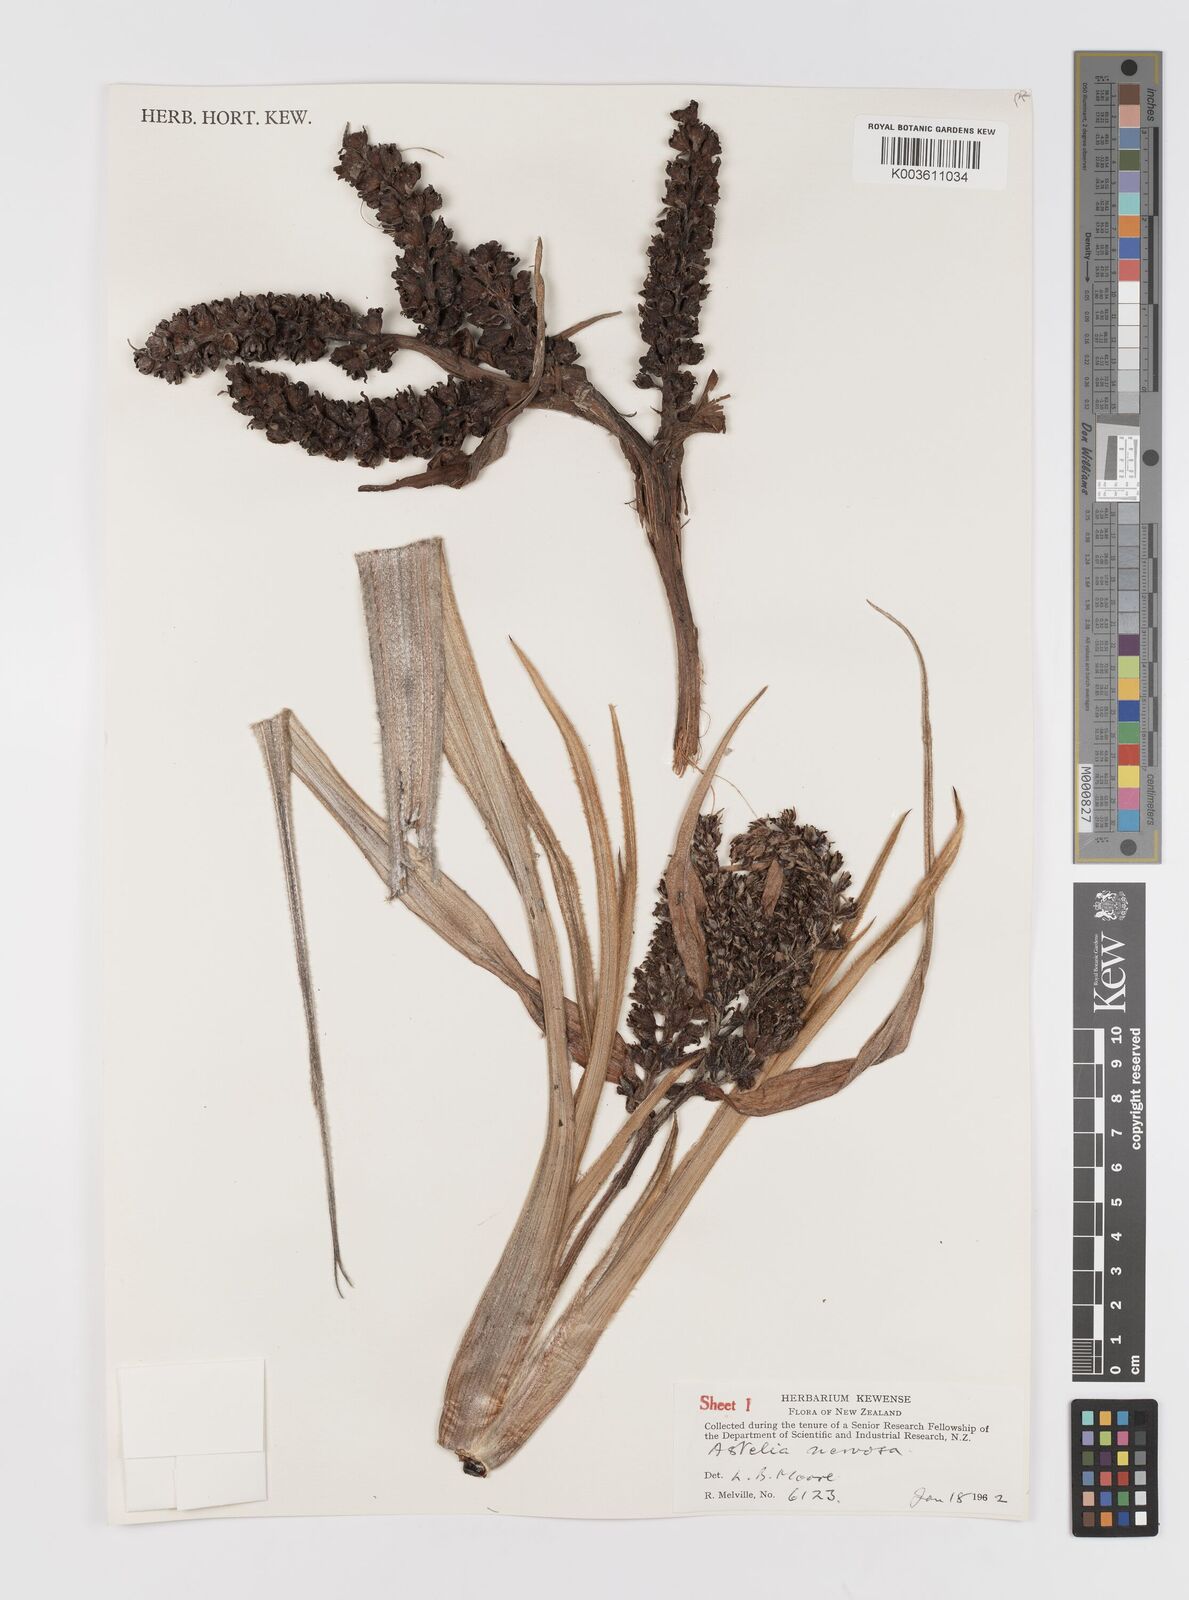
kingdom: Plantae
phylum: Tracheophyta
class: Liliopsida
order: Asparagales
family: Asteliaceae
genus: Astelia
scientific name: Astelia nervosa
